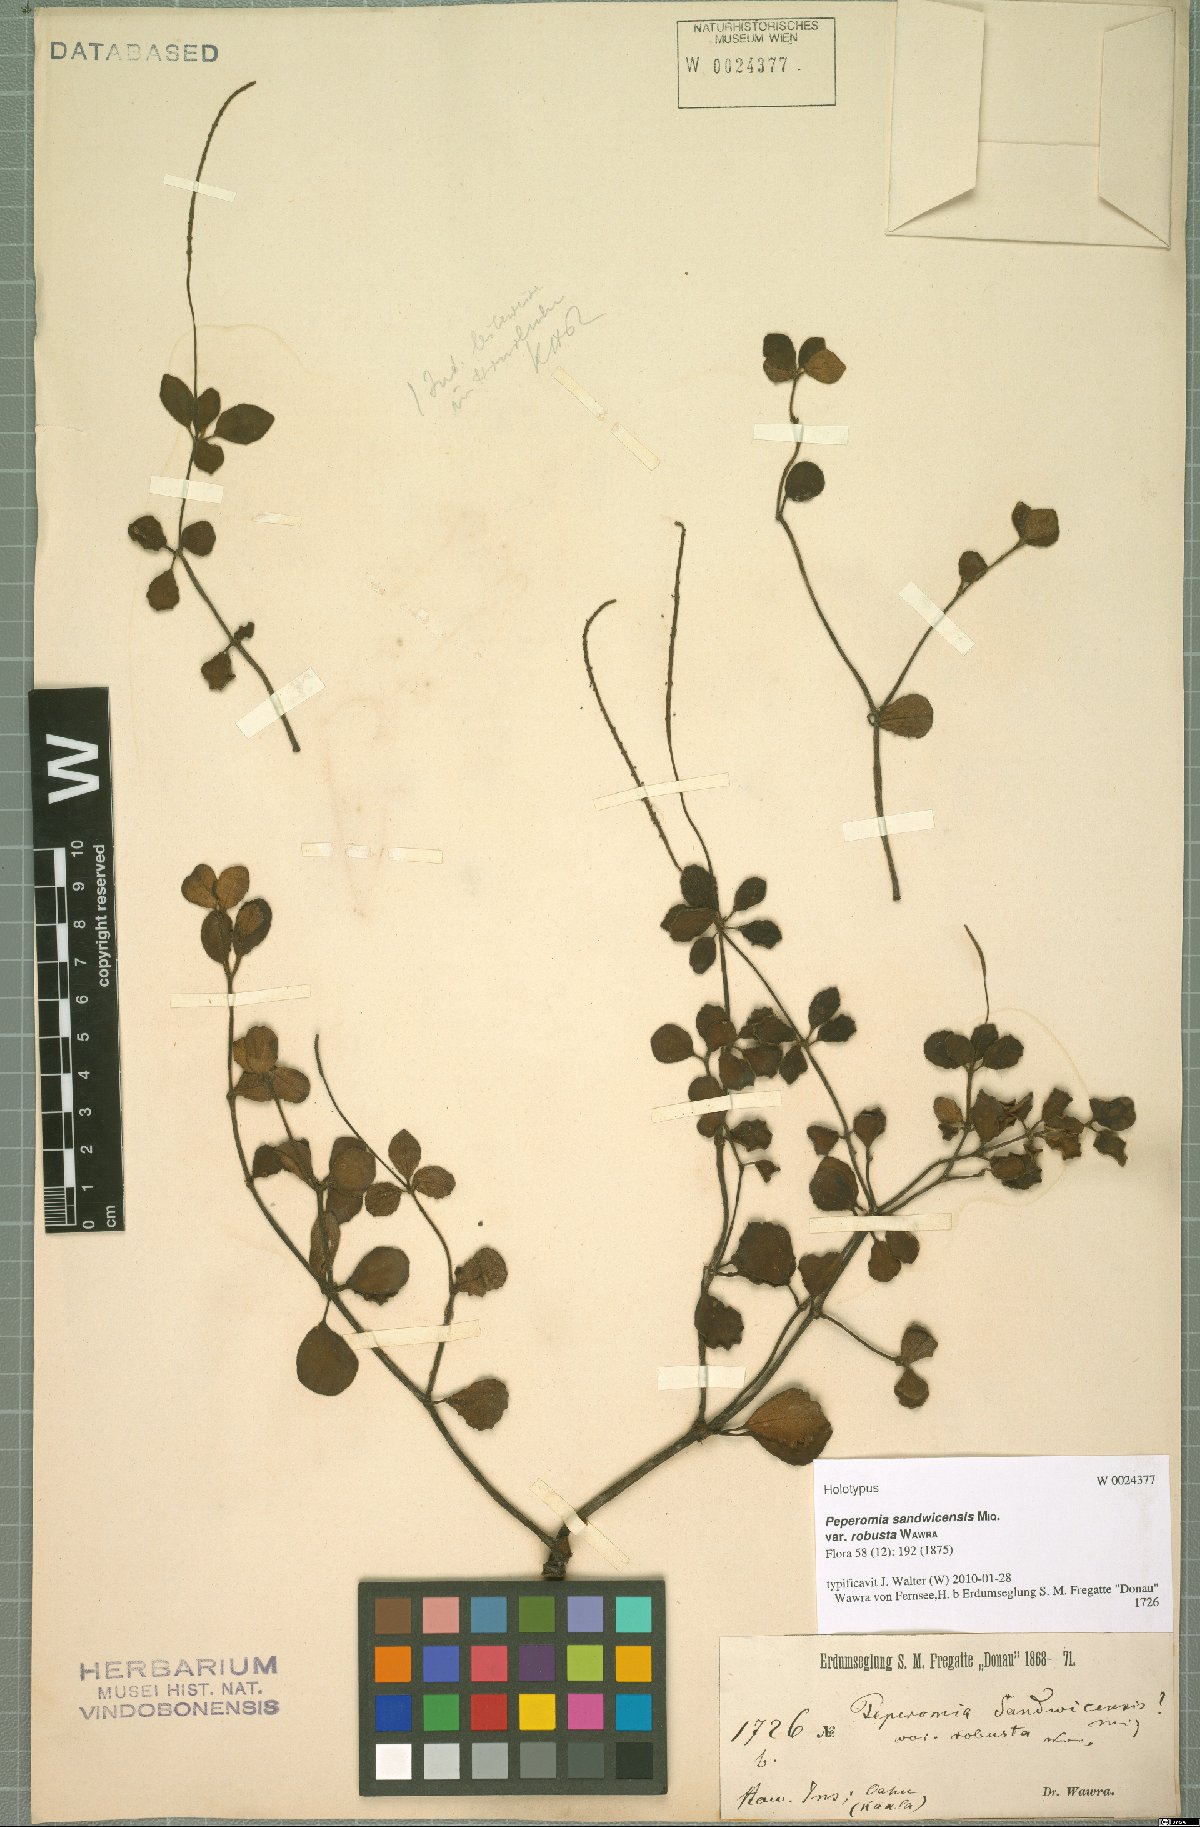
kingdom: Plantae
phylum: Tracheophyta
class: Magnoliopsida
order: Piperales
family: Piperaceae
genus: Peperomia
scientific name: Peperomia sandwicensis
